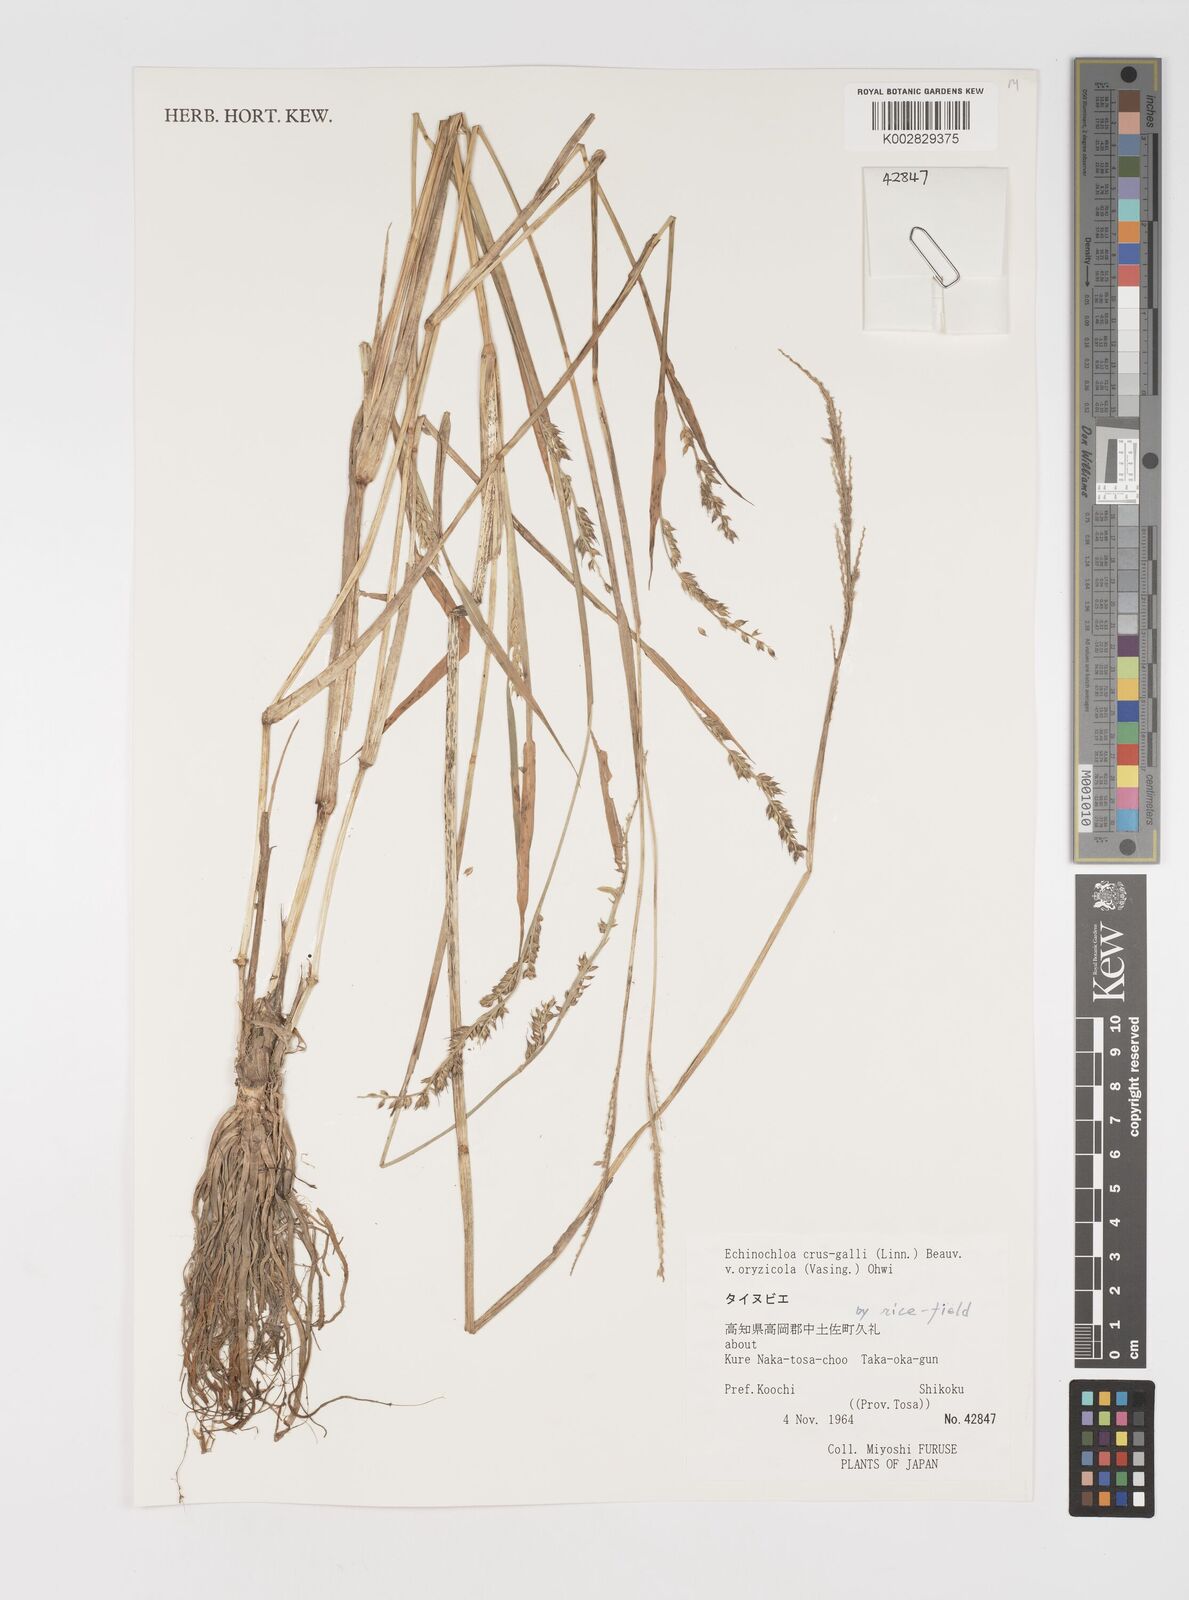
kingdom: Plantae
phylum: Tracheophyta
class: Liliopsida
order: Poales
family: Poaceae
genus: Echinochloa
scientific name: Echinochloa crus-galli
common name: Cockspur
